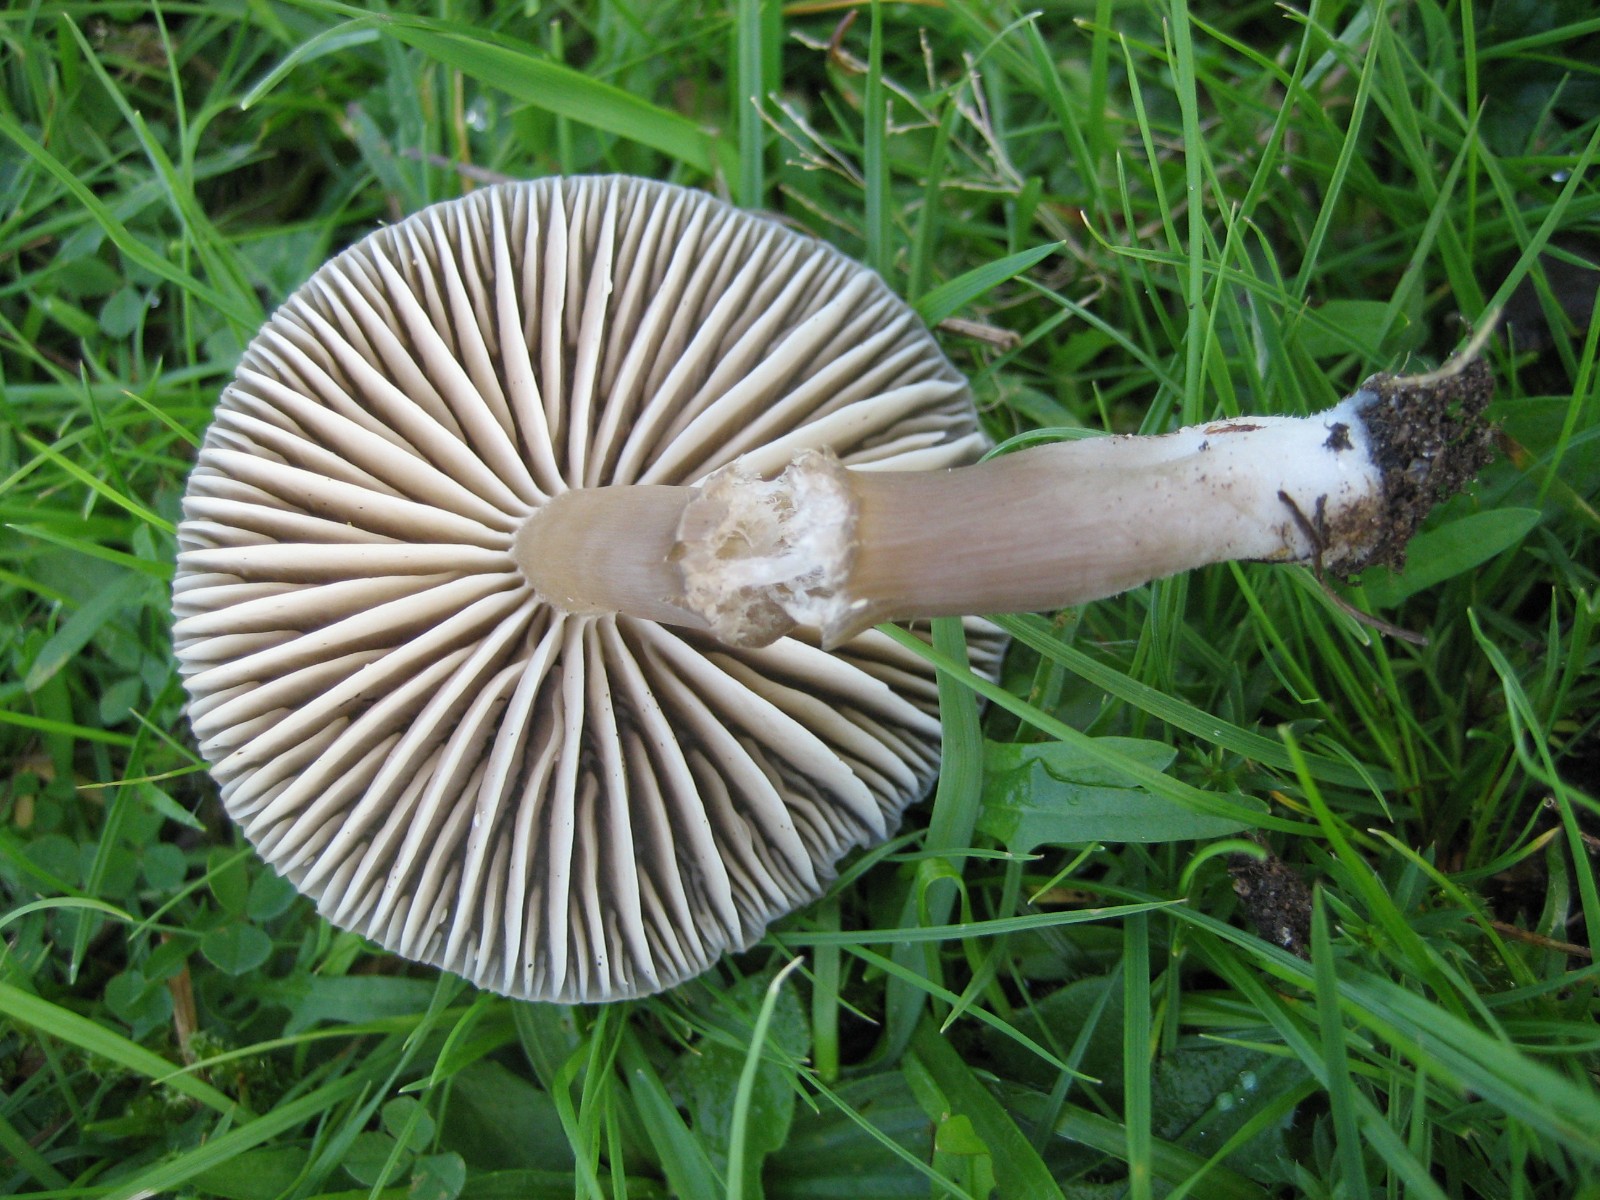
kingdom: Fungi
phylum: Basidiomycota
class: Agaricomycetes
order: Agaricales
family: Hygrophoraceae
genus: Neohygrocybe
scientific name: Neohygrocybe nitrata
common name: stinkende vokshat
